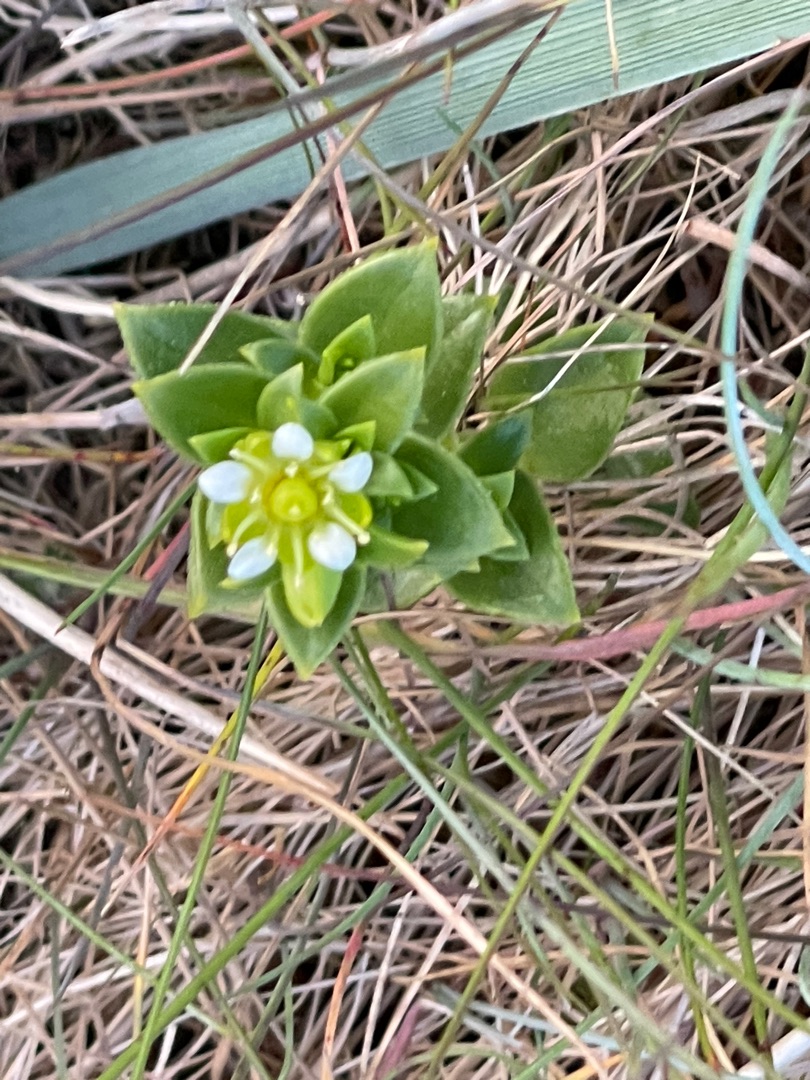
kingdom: Plantae
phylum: Tracheophyta
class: Magnoliopsida
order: Caryophyllales
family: Caryophyllaceae
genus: Honckenya
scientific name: Honckenya peploides
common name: Strandarve
